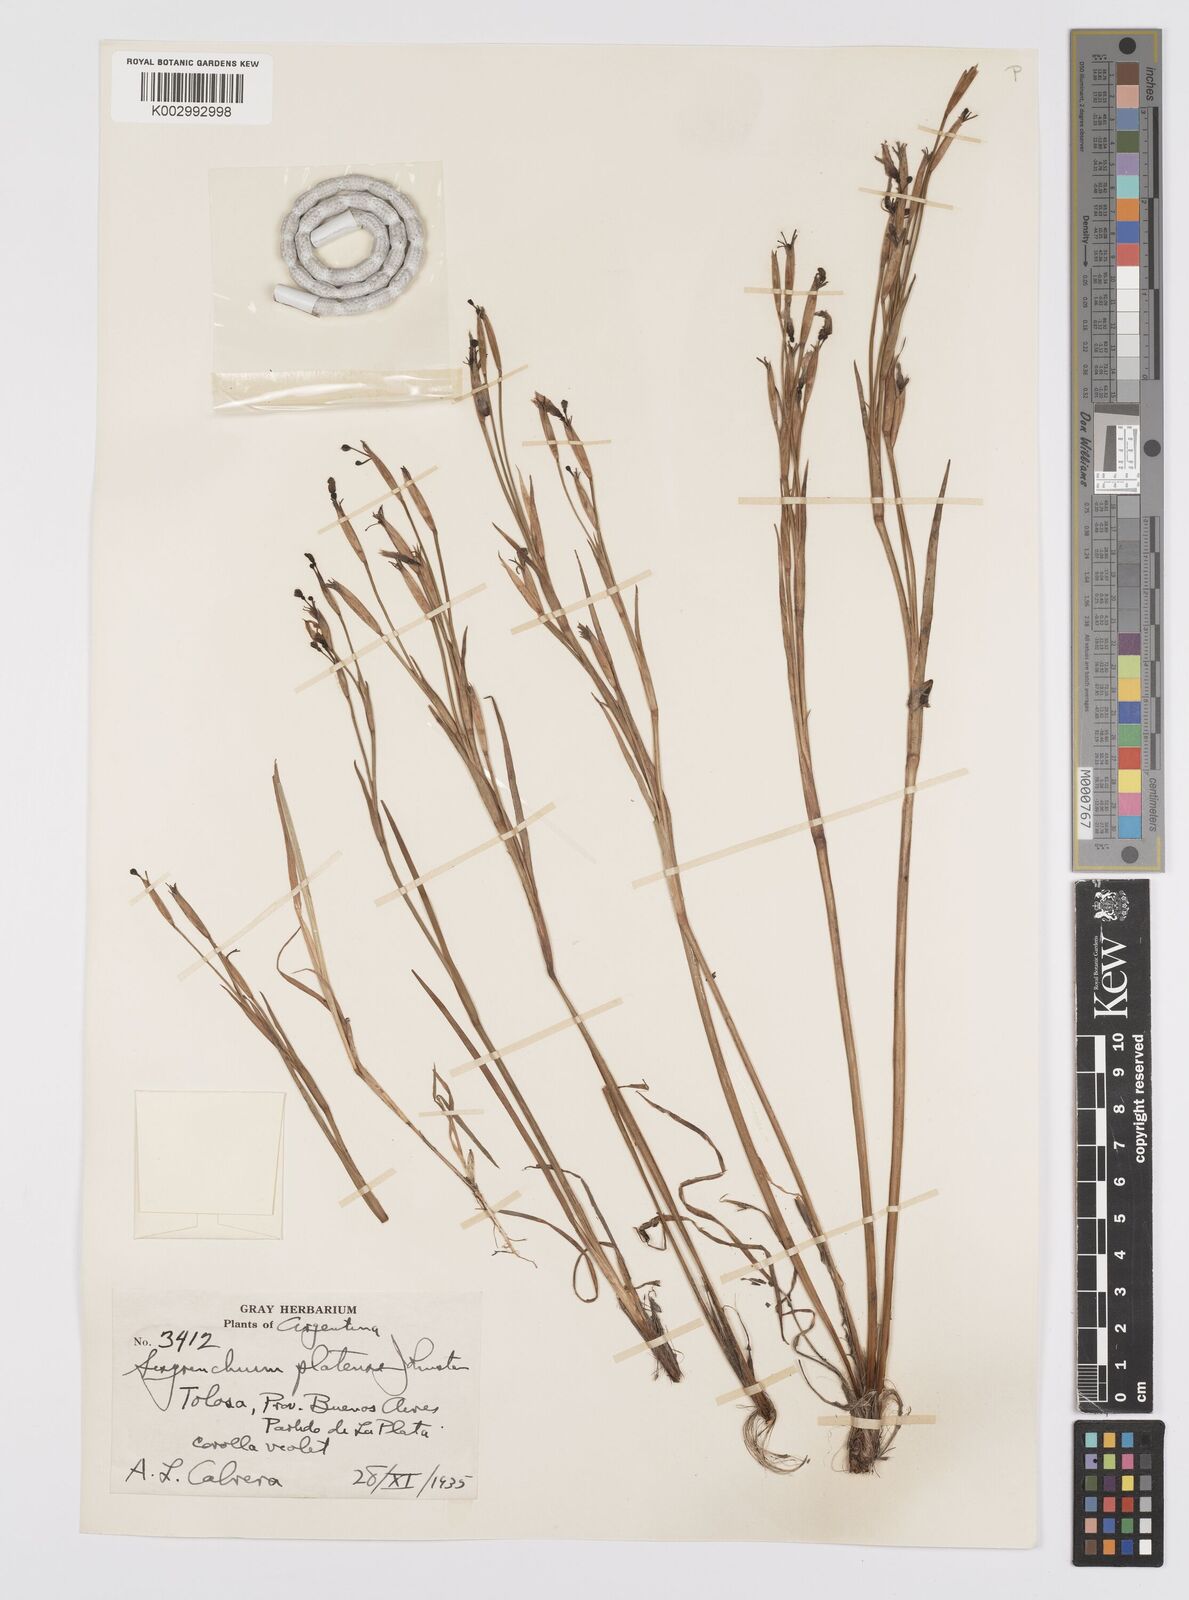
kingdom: Plantae
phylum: Tracheophyta
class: Liliopsida
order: Asparagales
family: Iridaceae
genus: Sisyrinchium
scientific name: Sisyrinchium platense
